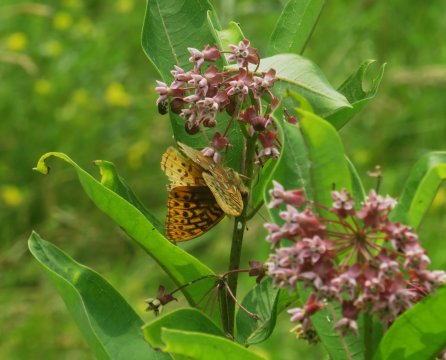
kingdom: Animalia
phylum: Arthropoda
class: Insecta
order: Lepidoptera
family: Nymphalidae
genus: Speyeria
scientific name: Speyeria cybele
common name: Great Spangled Fritillary
